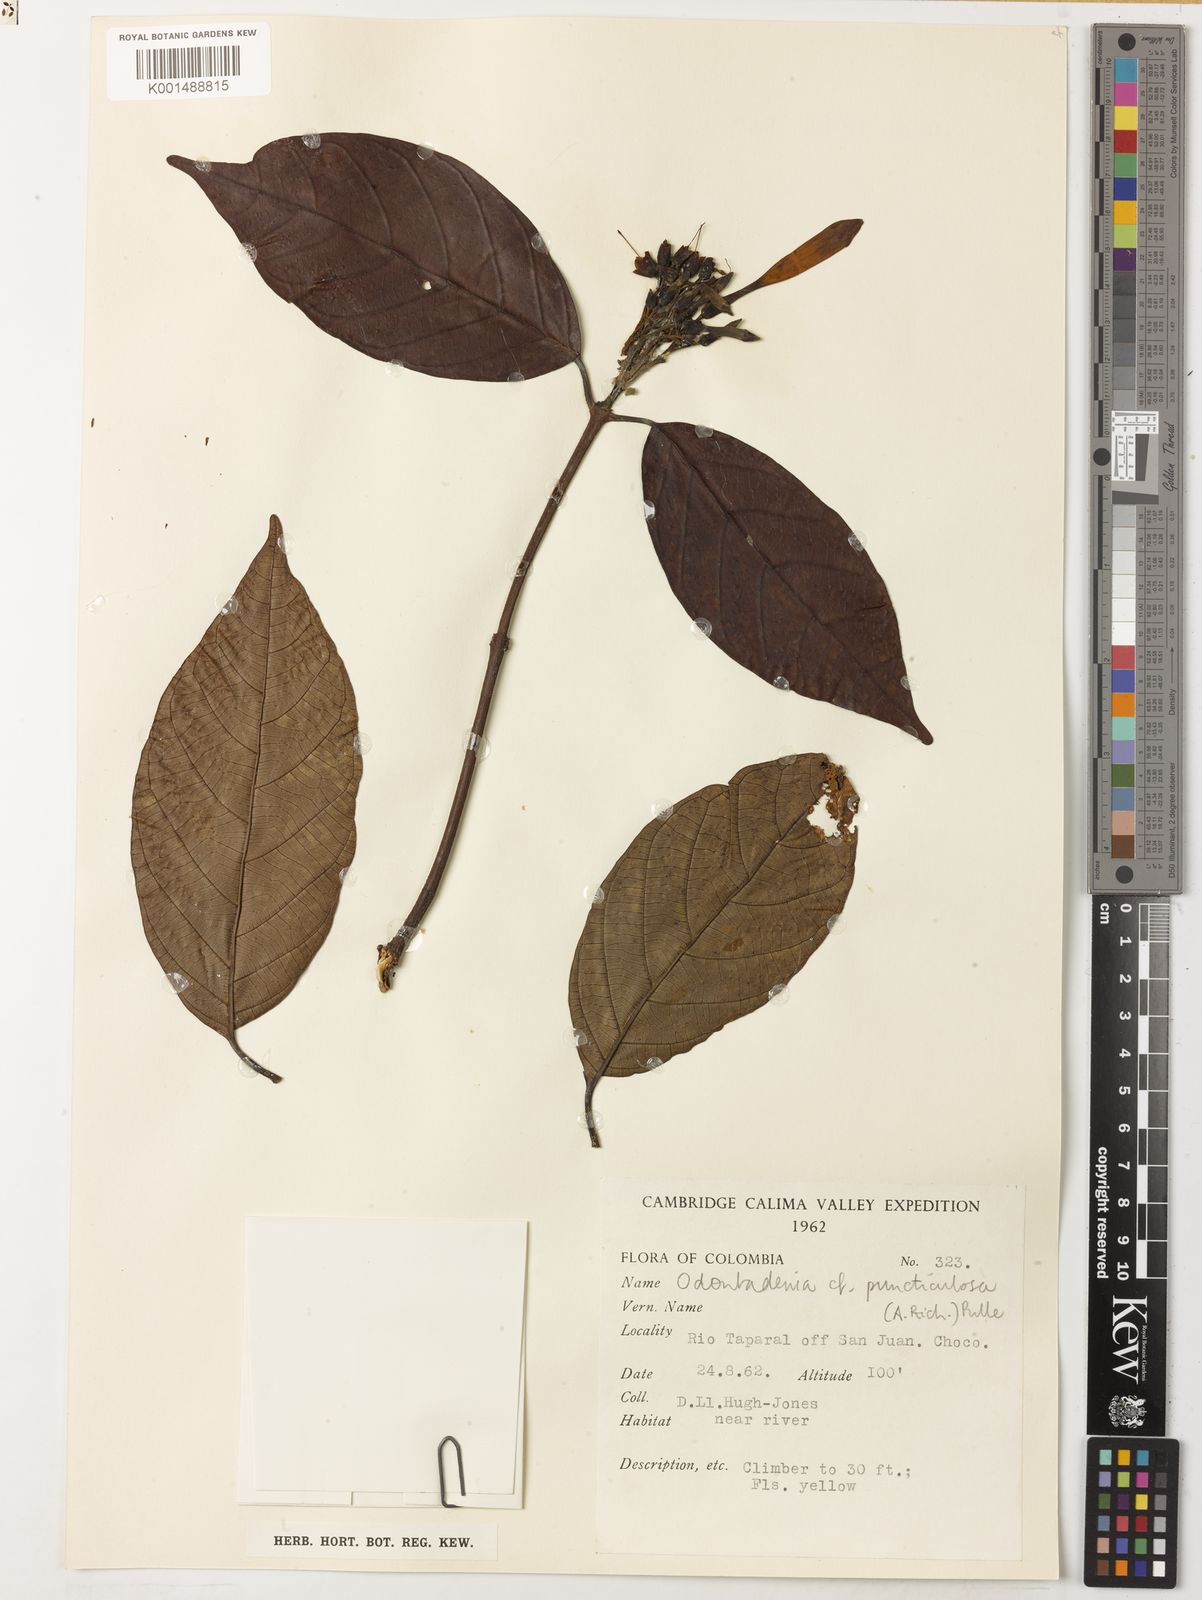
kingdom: Plantae
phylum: Tracheophyta
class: Magnoliopsida
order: Gentianales
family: Apocynaceae
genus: Odontadenia
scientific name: Odontadenia puncticulosa
